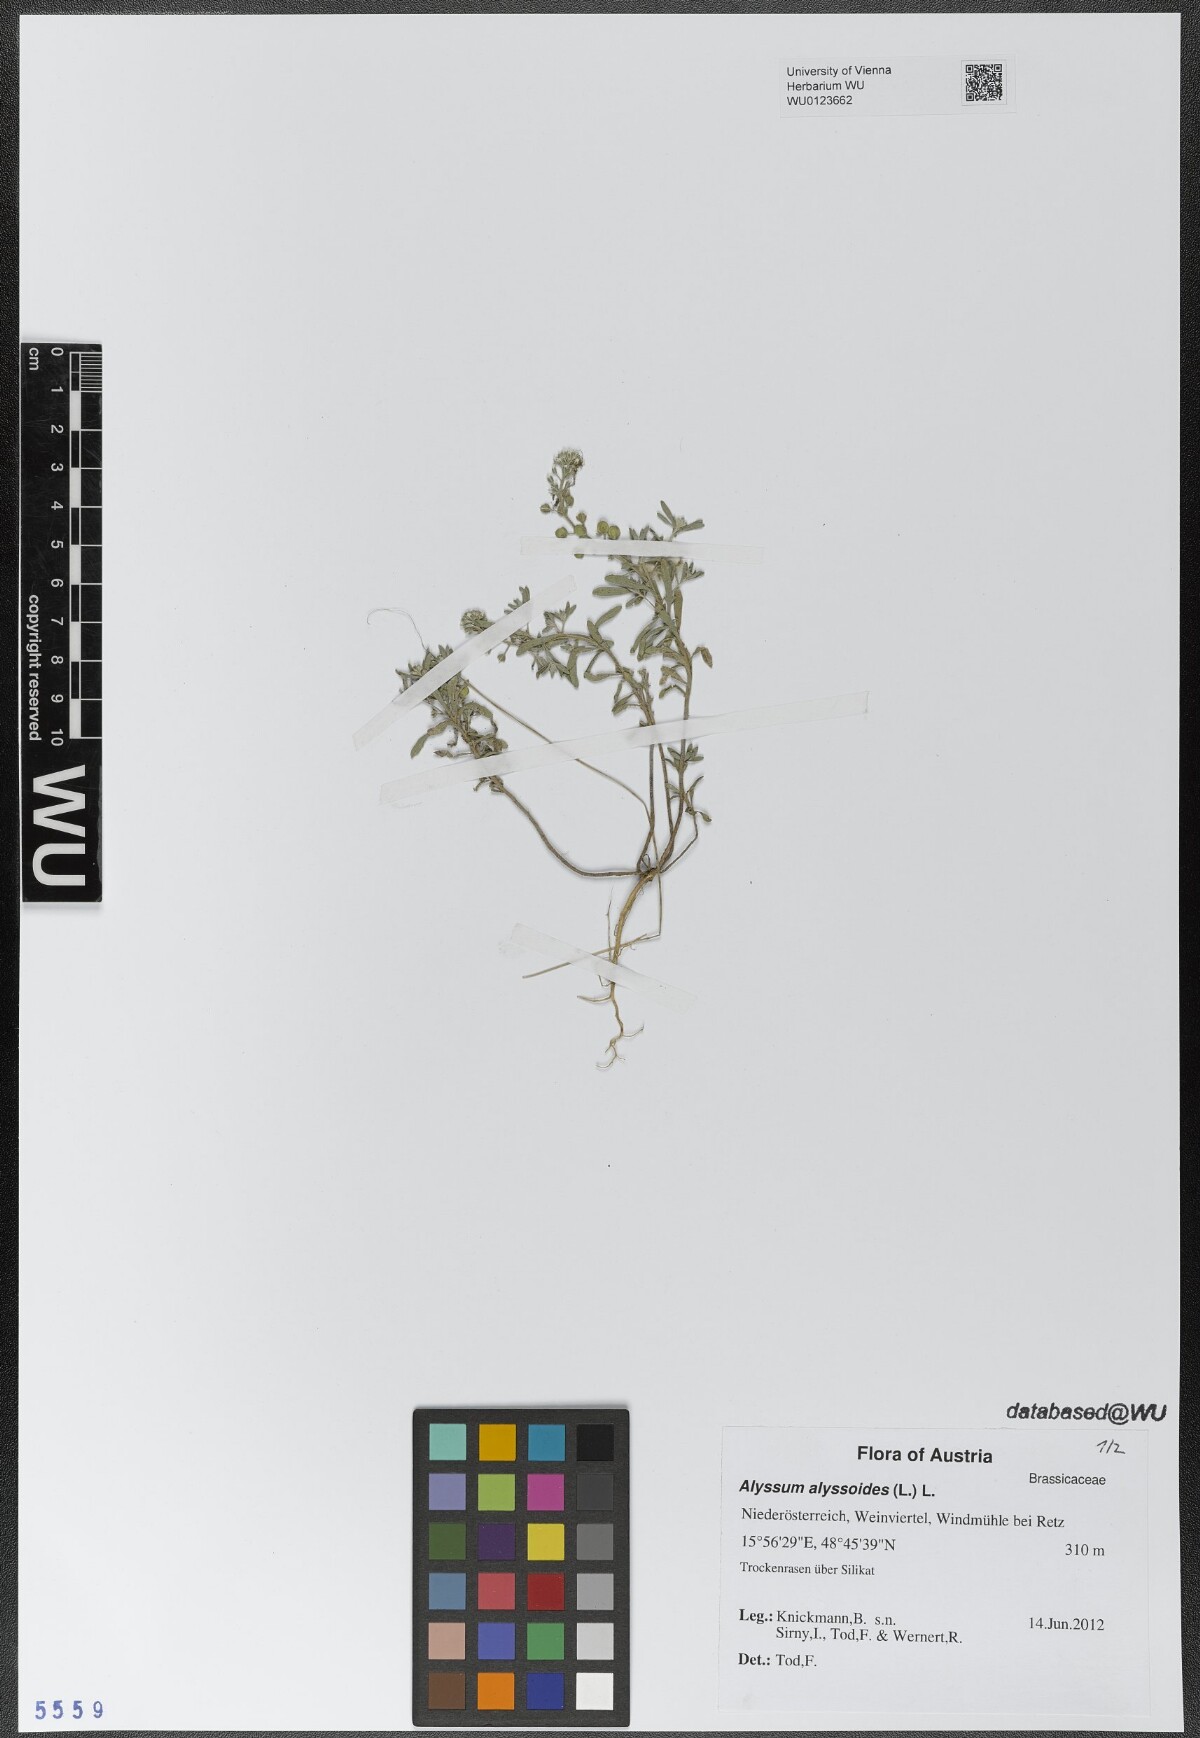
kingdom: Plantae
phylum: Tracheophyta
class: Magnoliopsida
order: Brassicales
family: Brassicaceae
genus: Alyssum
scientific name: Alyssum alyssoides
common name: Small alison
